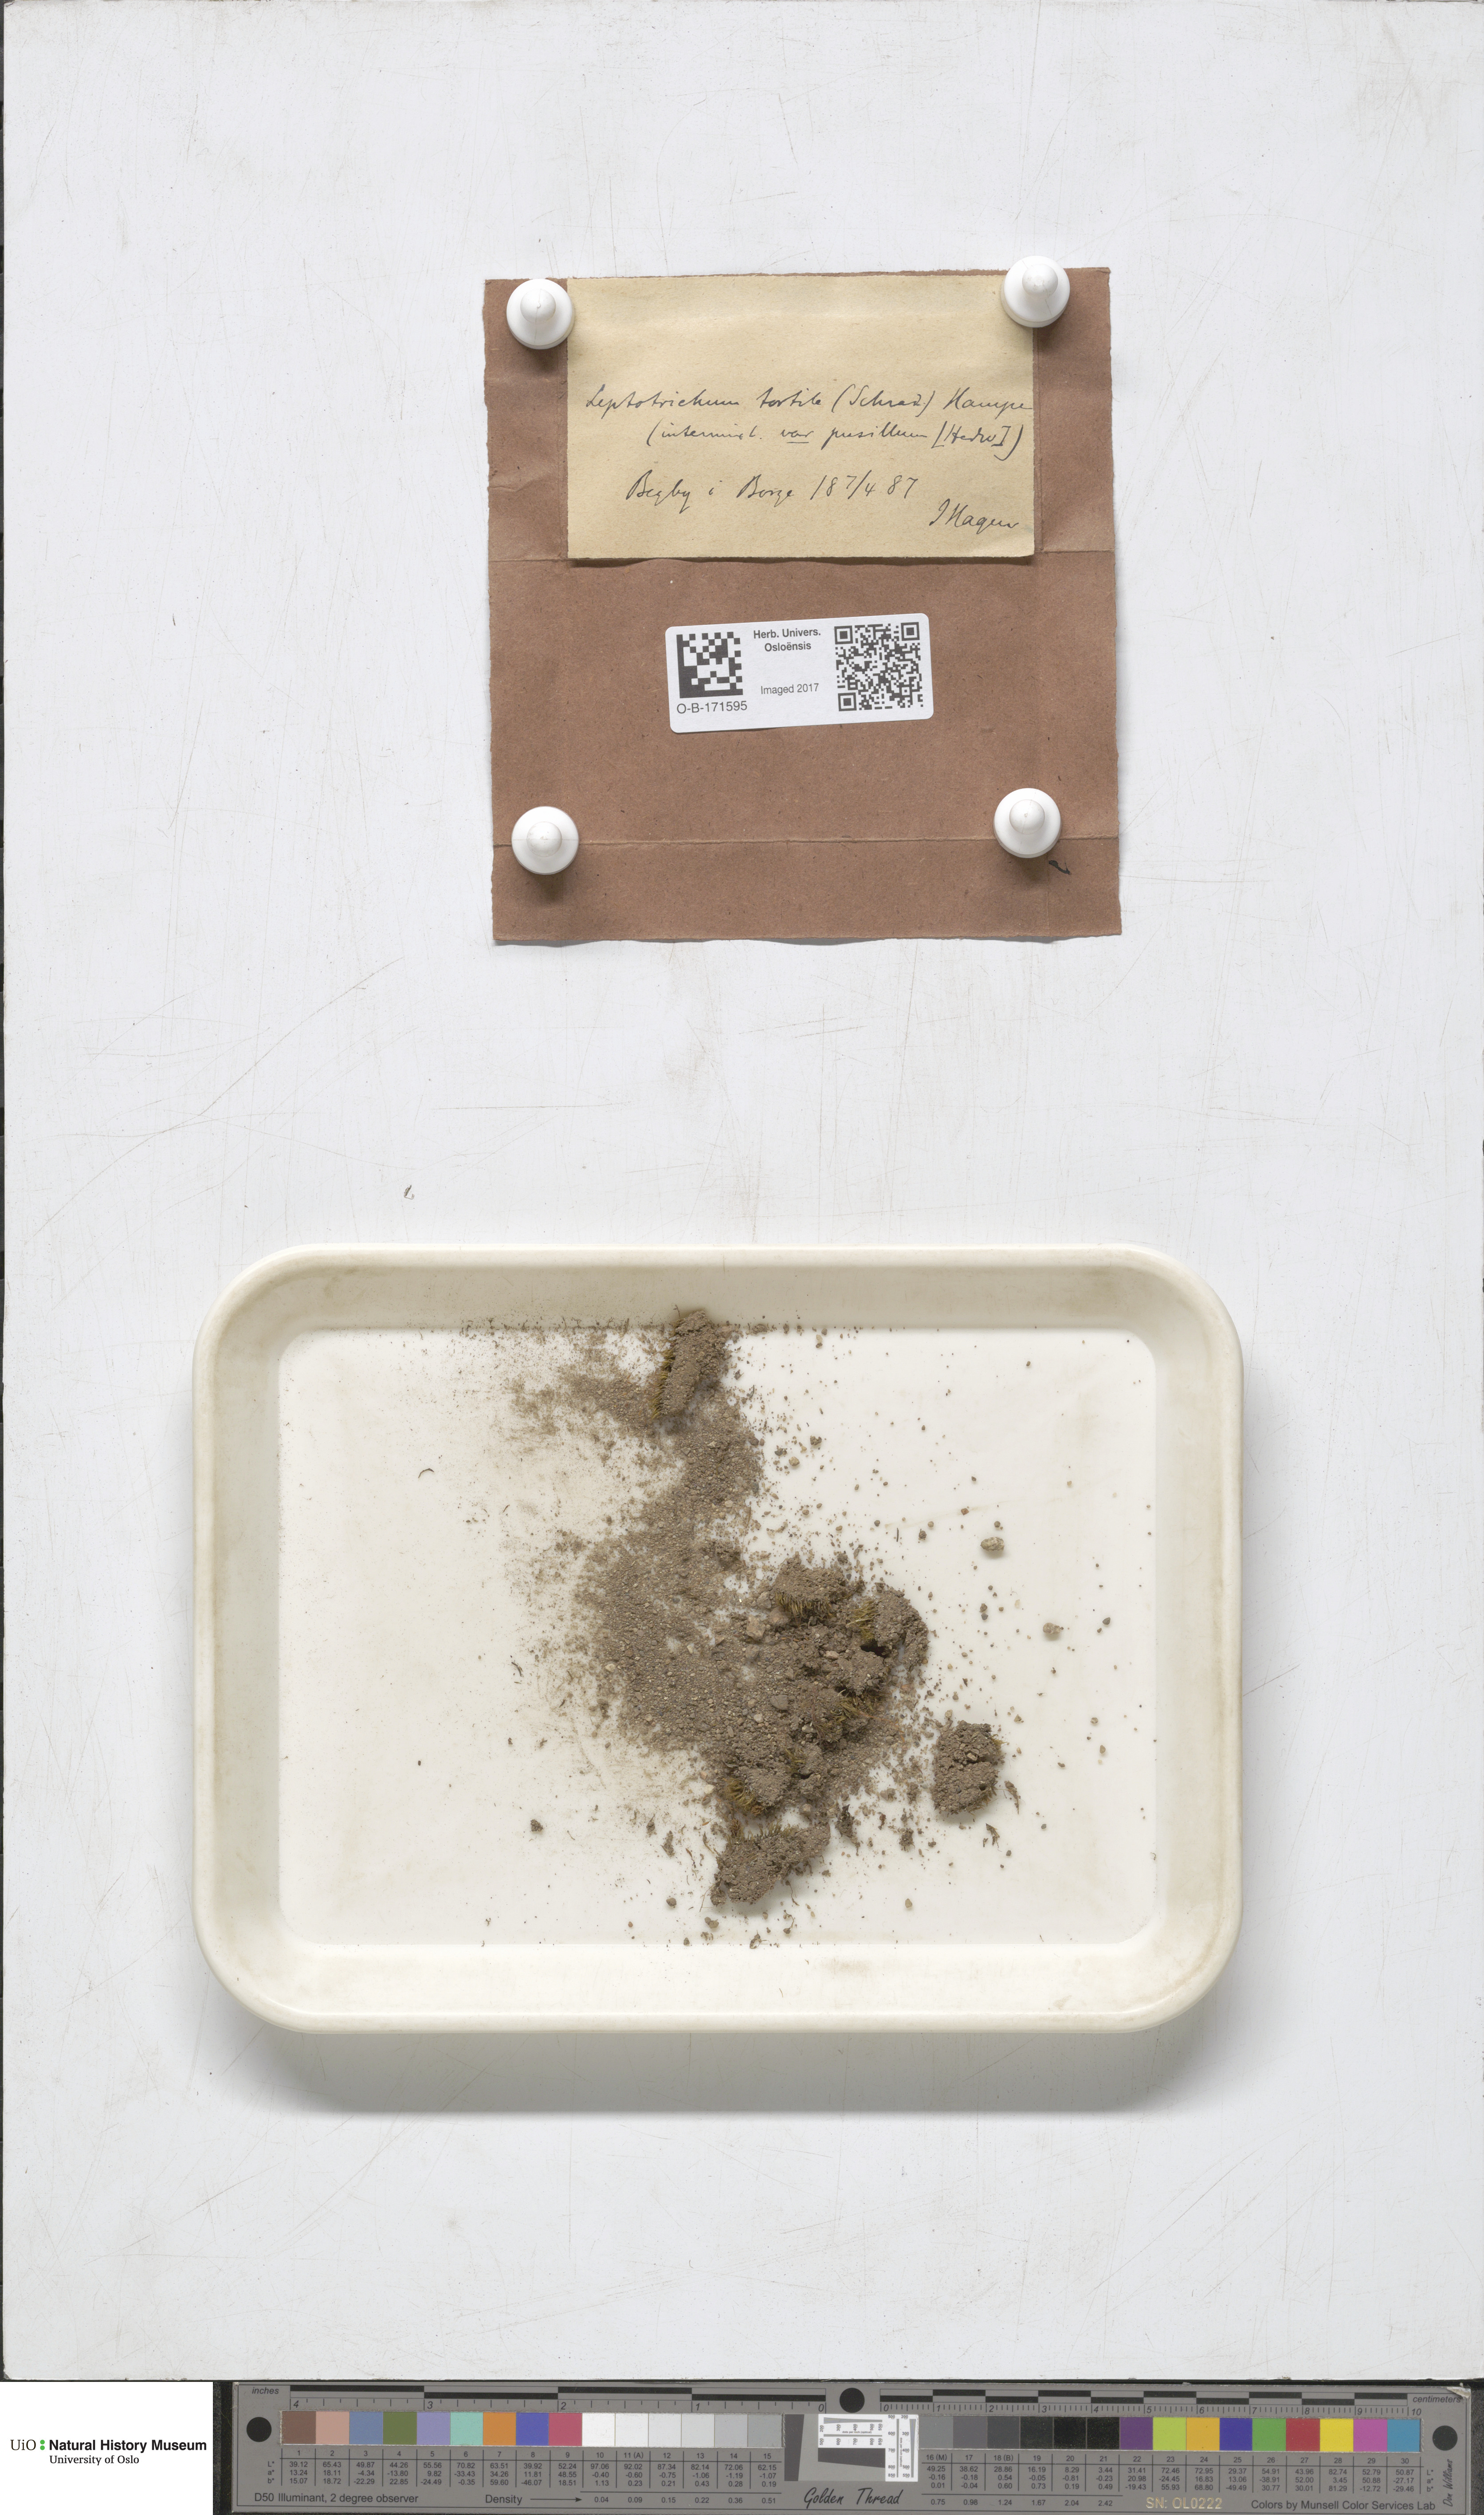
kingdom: Plantae
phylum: Bryophyta
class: Bryopsida
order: Dicranales
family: Ditrichaceae
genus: Ditrichum
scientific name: Ditrichum pusillum
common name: Brown cow-hair moss
